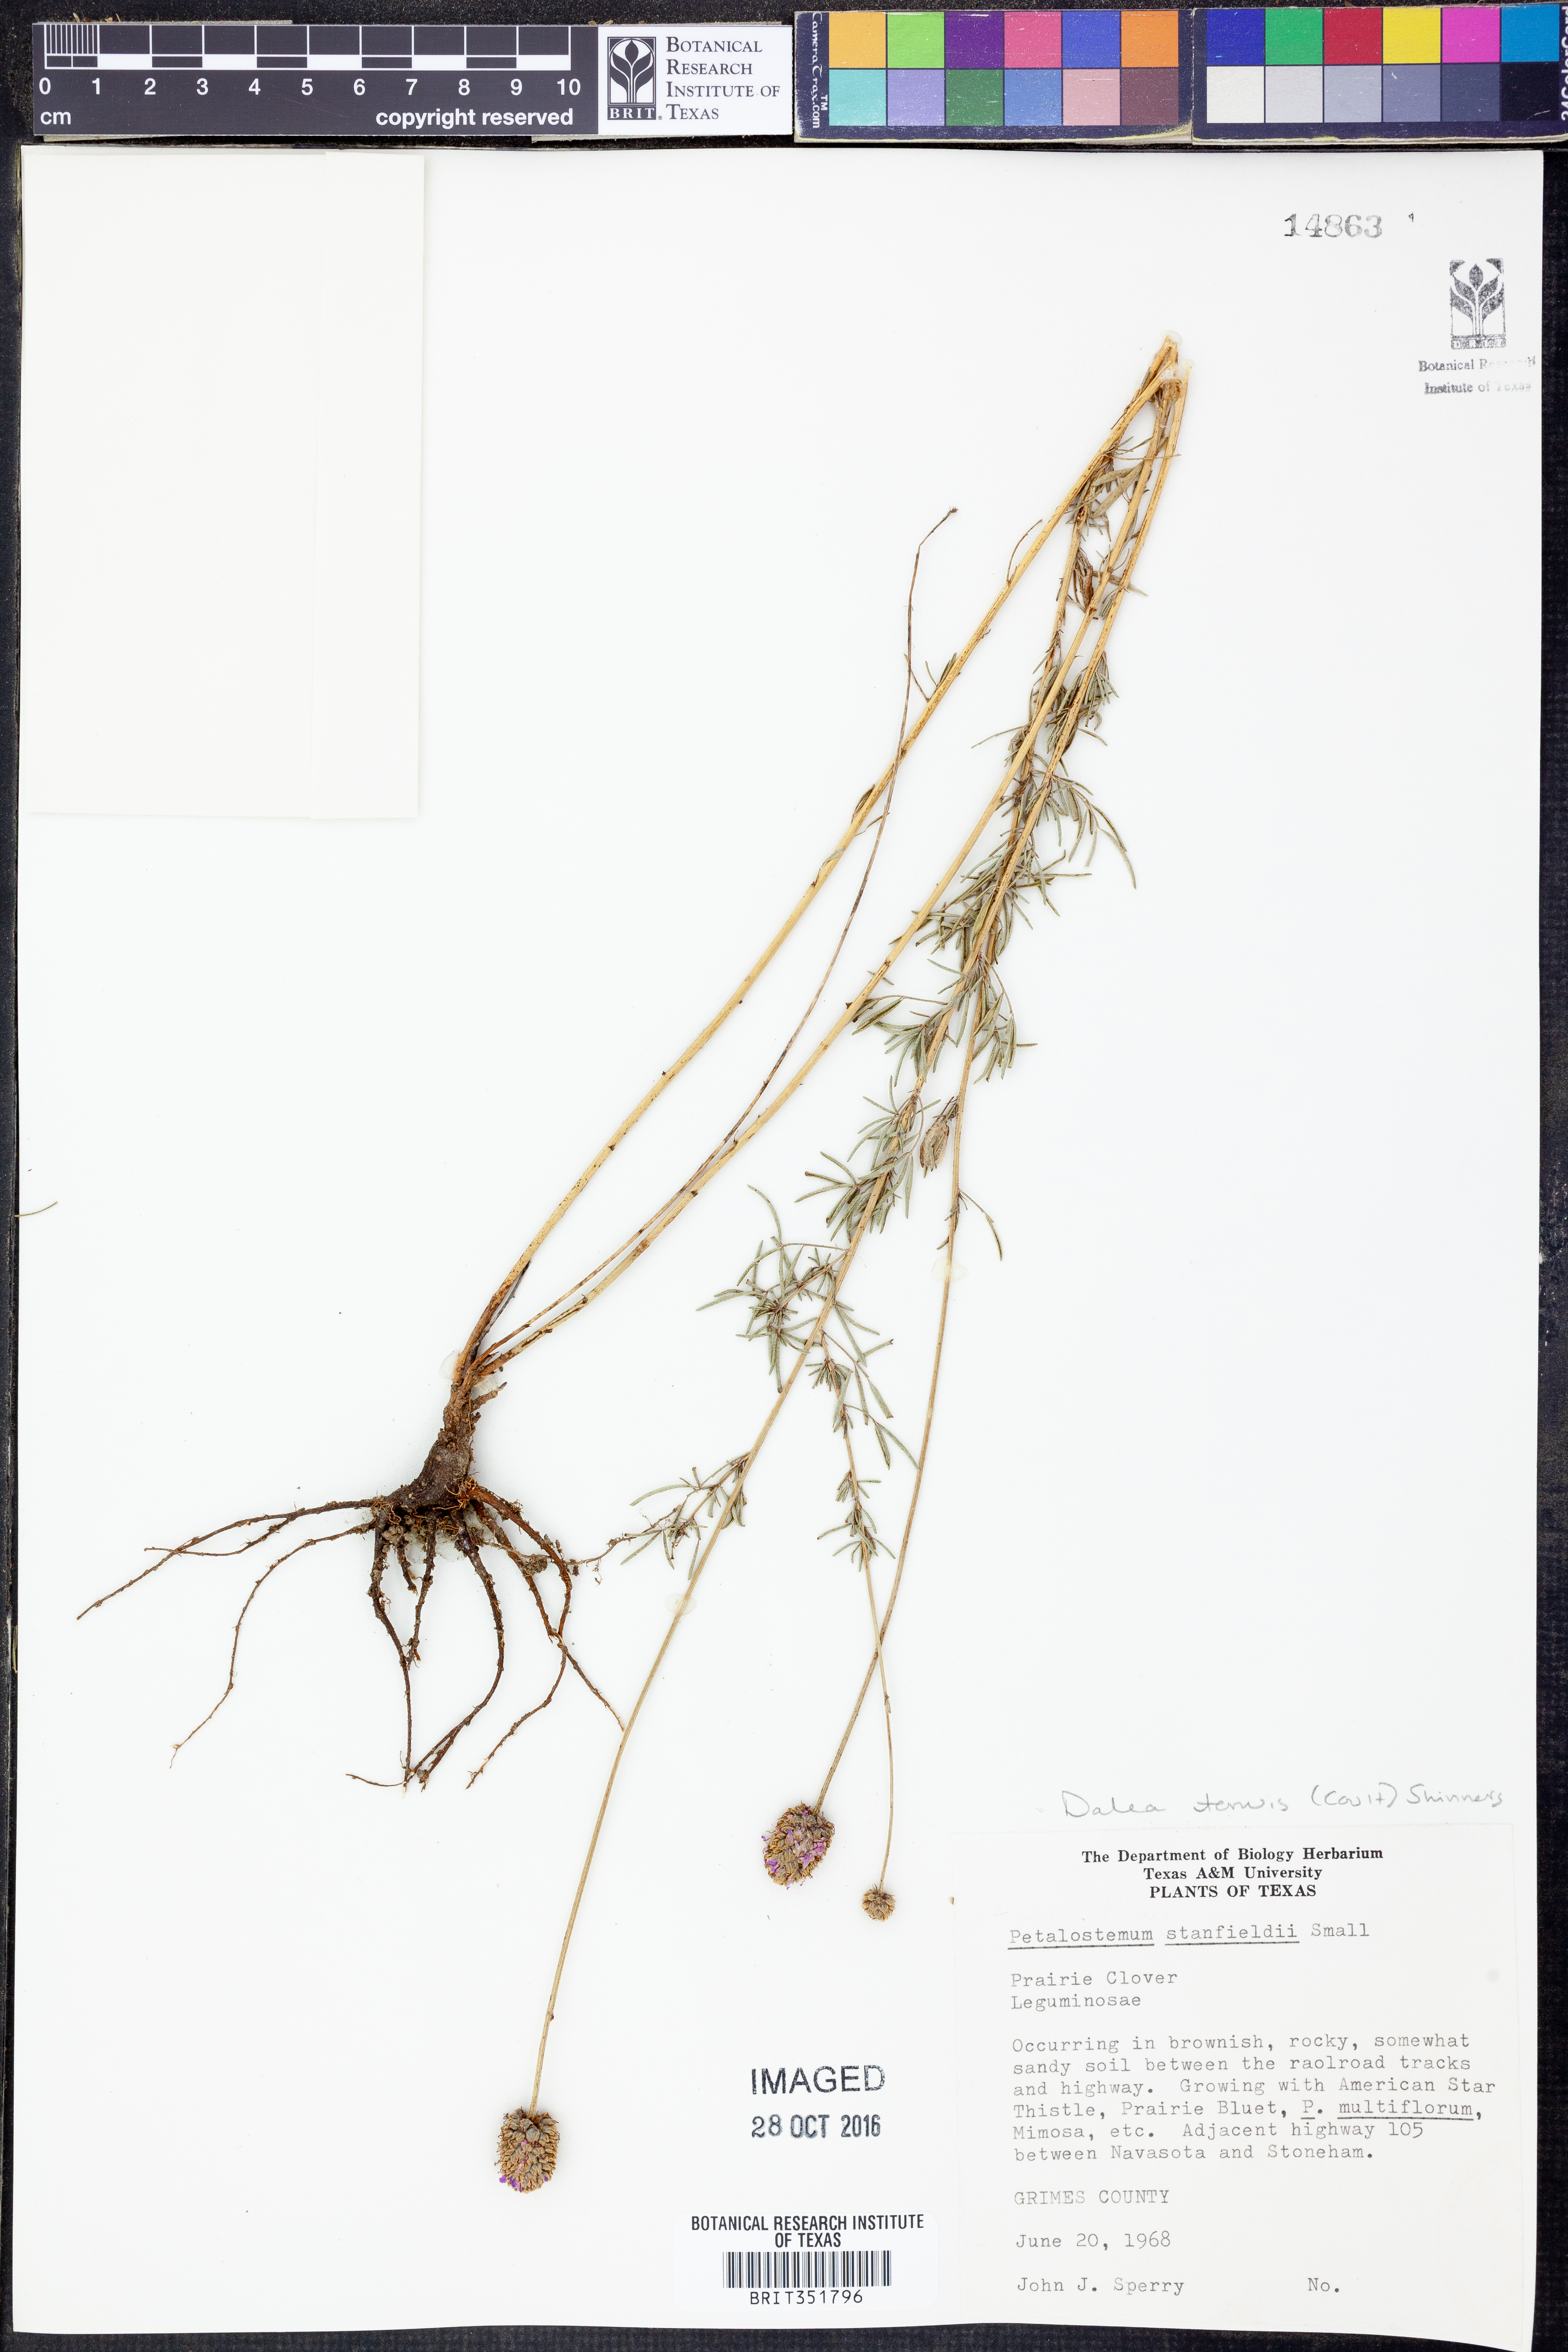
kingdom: Plantae
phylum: Tracheophyta
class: Magnoliopsida
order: Fabales
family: Fabaceae
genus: Dalea
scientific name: Dalea tenuis
